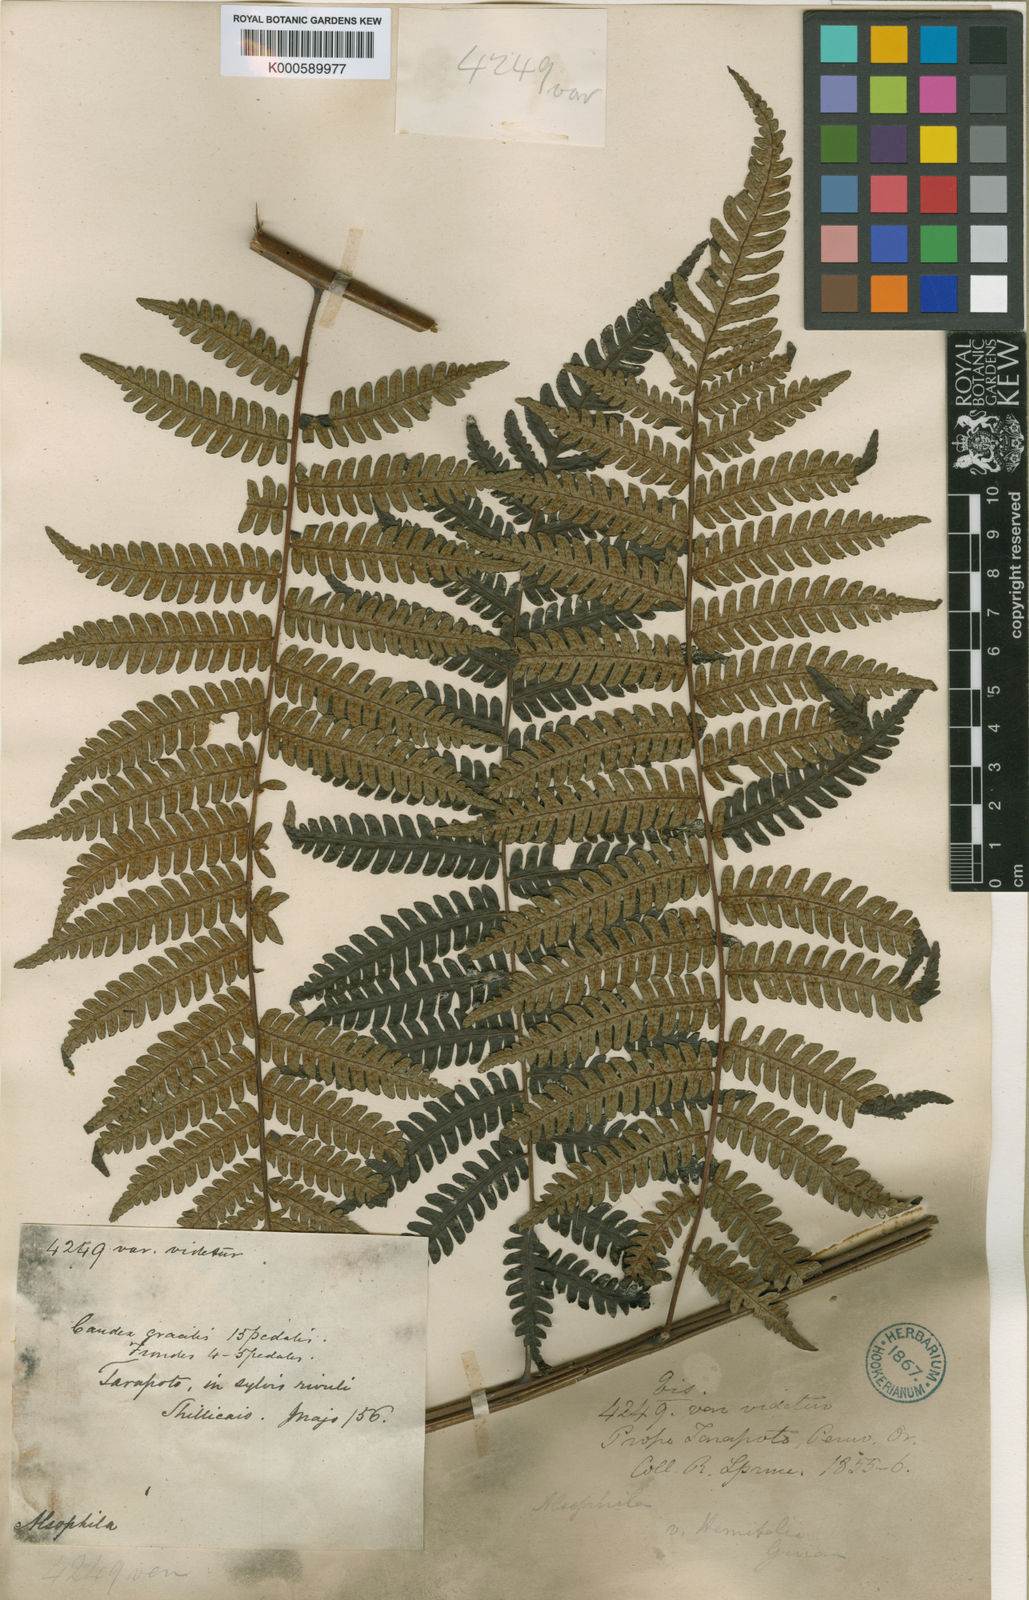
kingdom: Plantae
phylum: Tracheophyta
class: Polypodiopsida
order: Cyatheales
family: Cyatheaceae
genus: Cyathea
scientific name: Cyathea nigra
